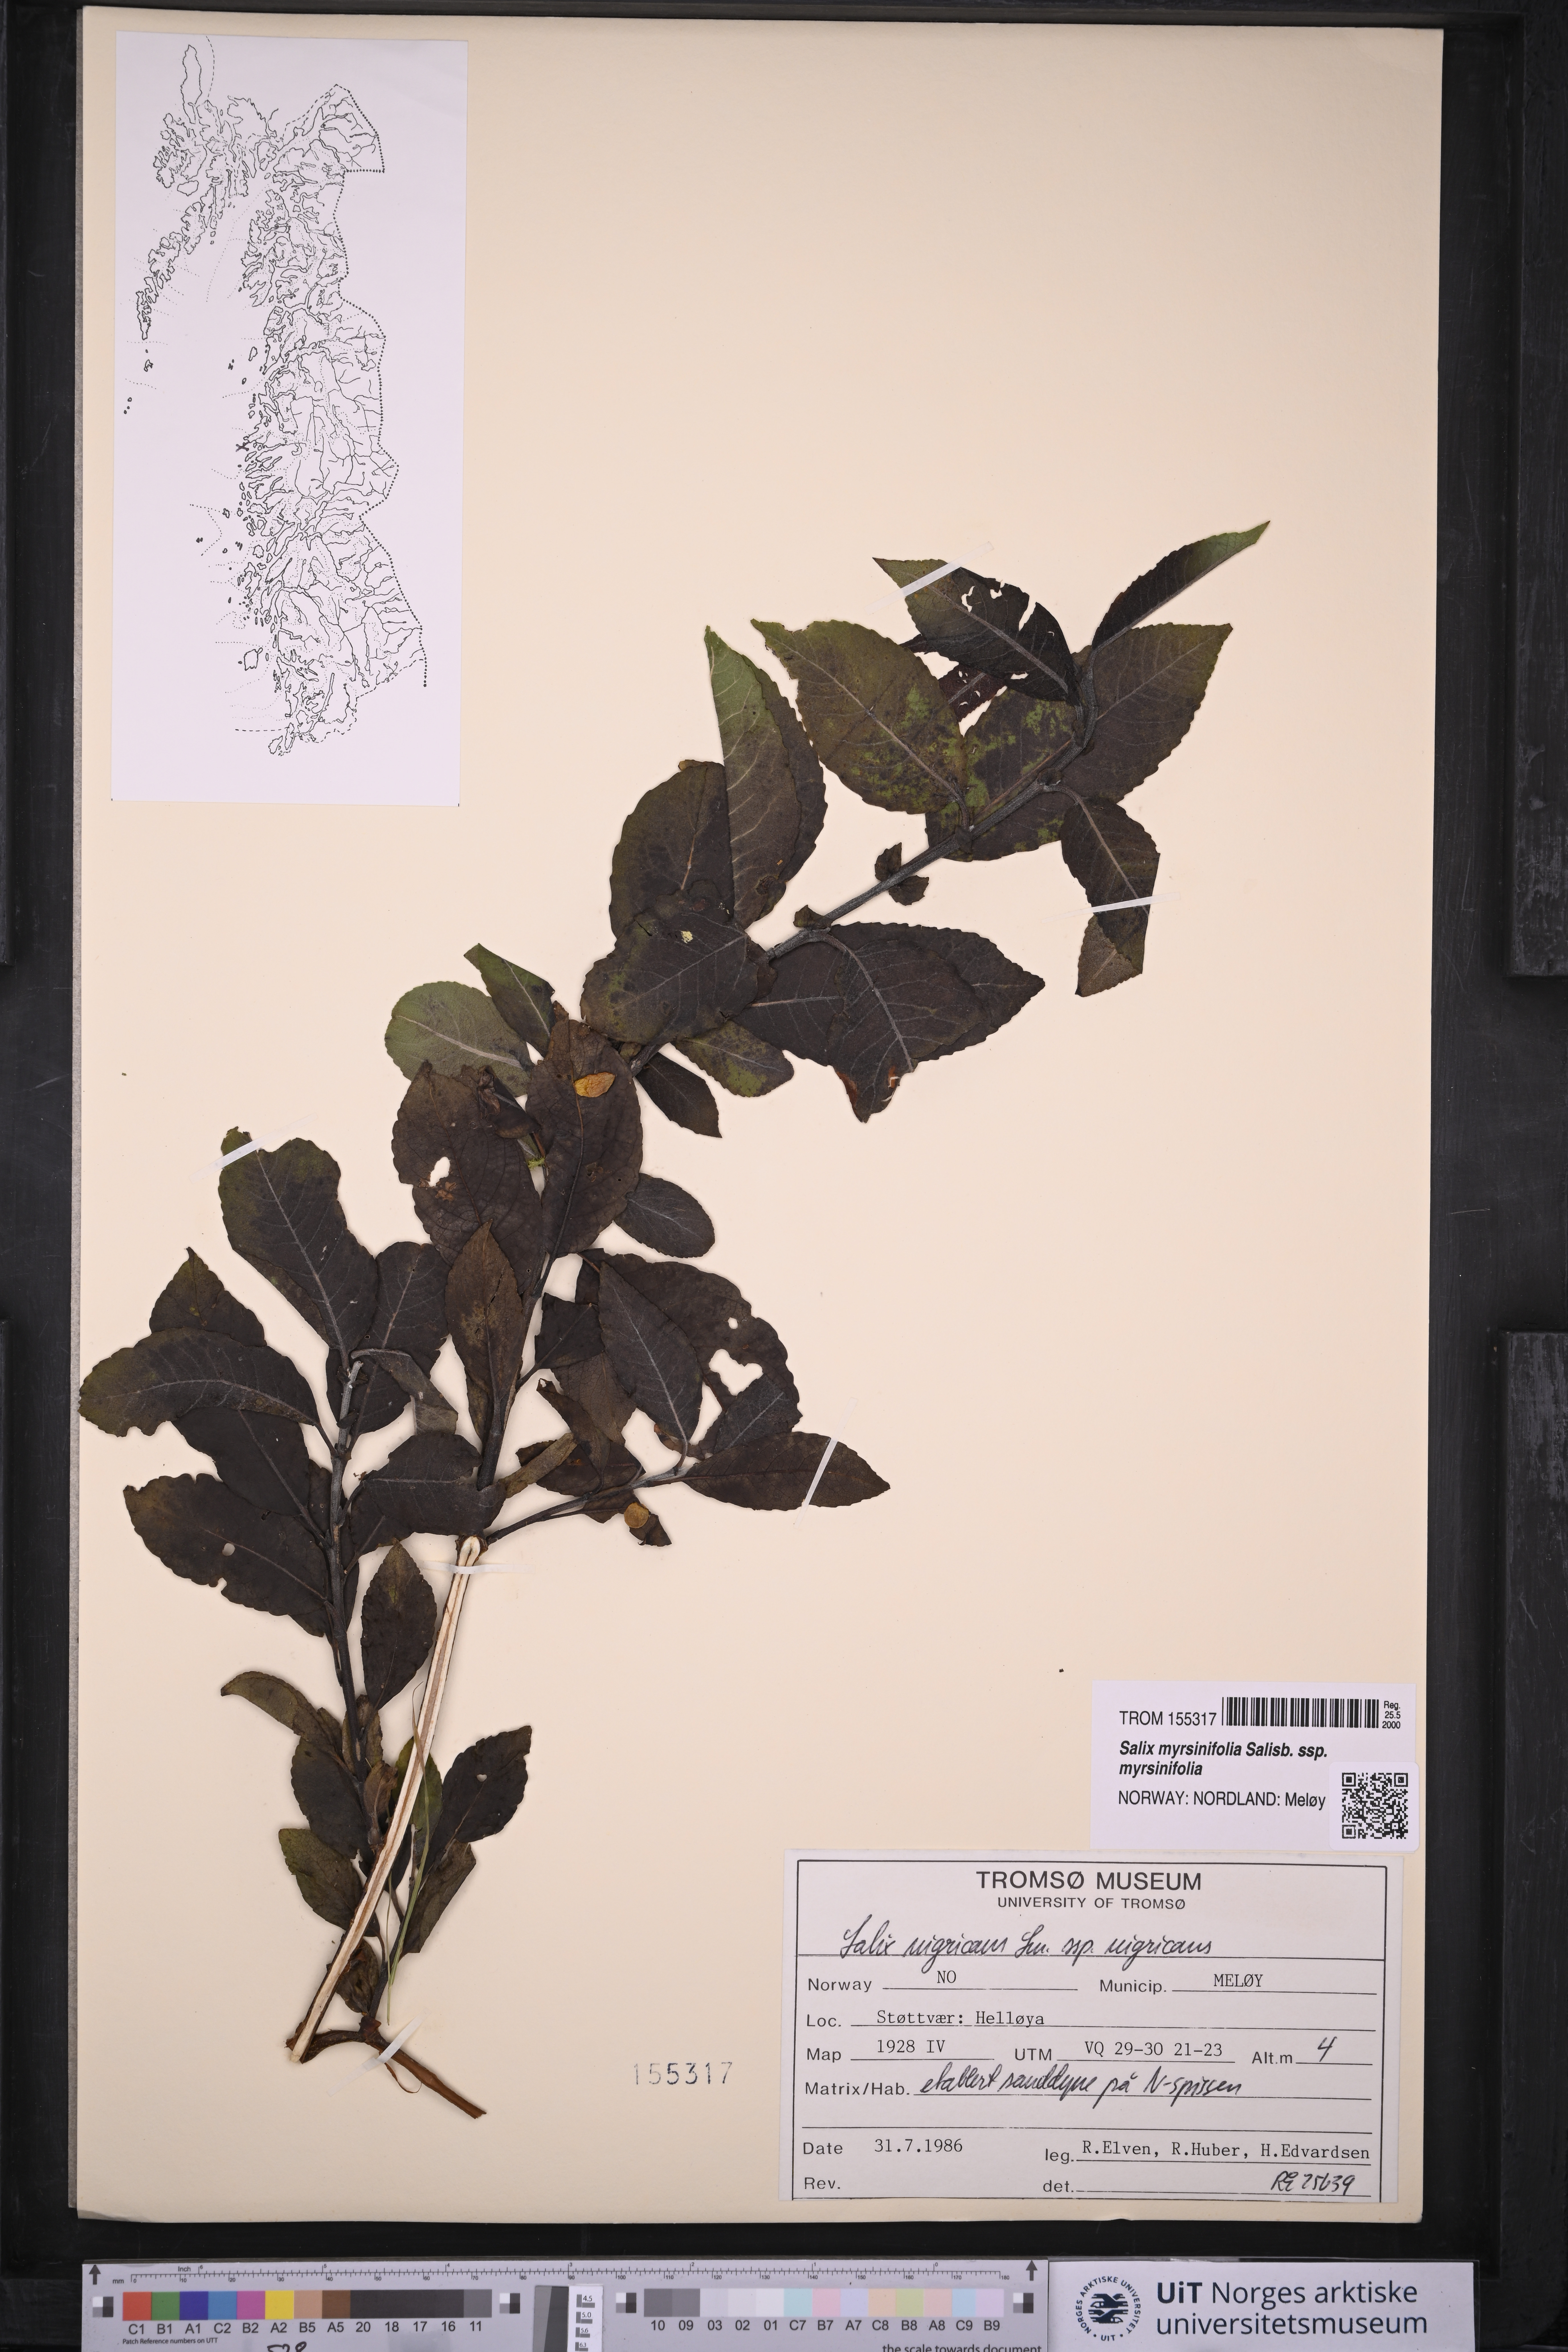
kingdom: Plantae
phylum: Tracheophyta
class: Magnoliopsida
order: Malpighiales
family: Salicaceae
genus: Salix
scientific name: Salix myrsinifolia
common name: Dark-leaved willow
